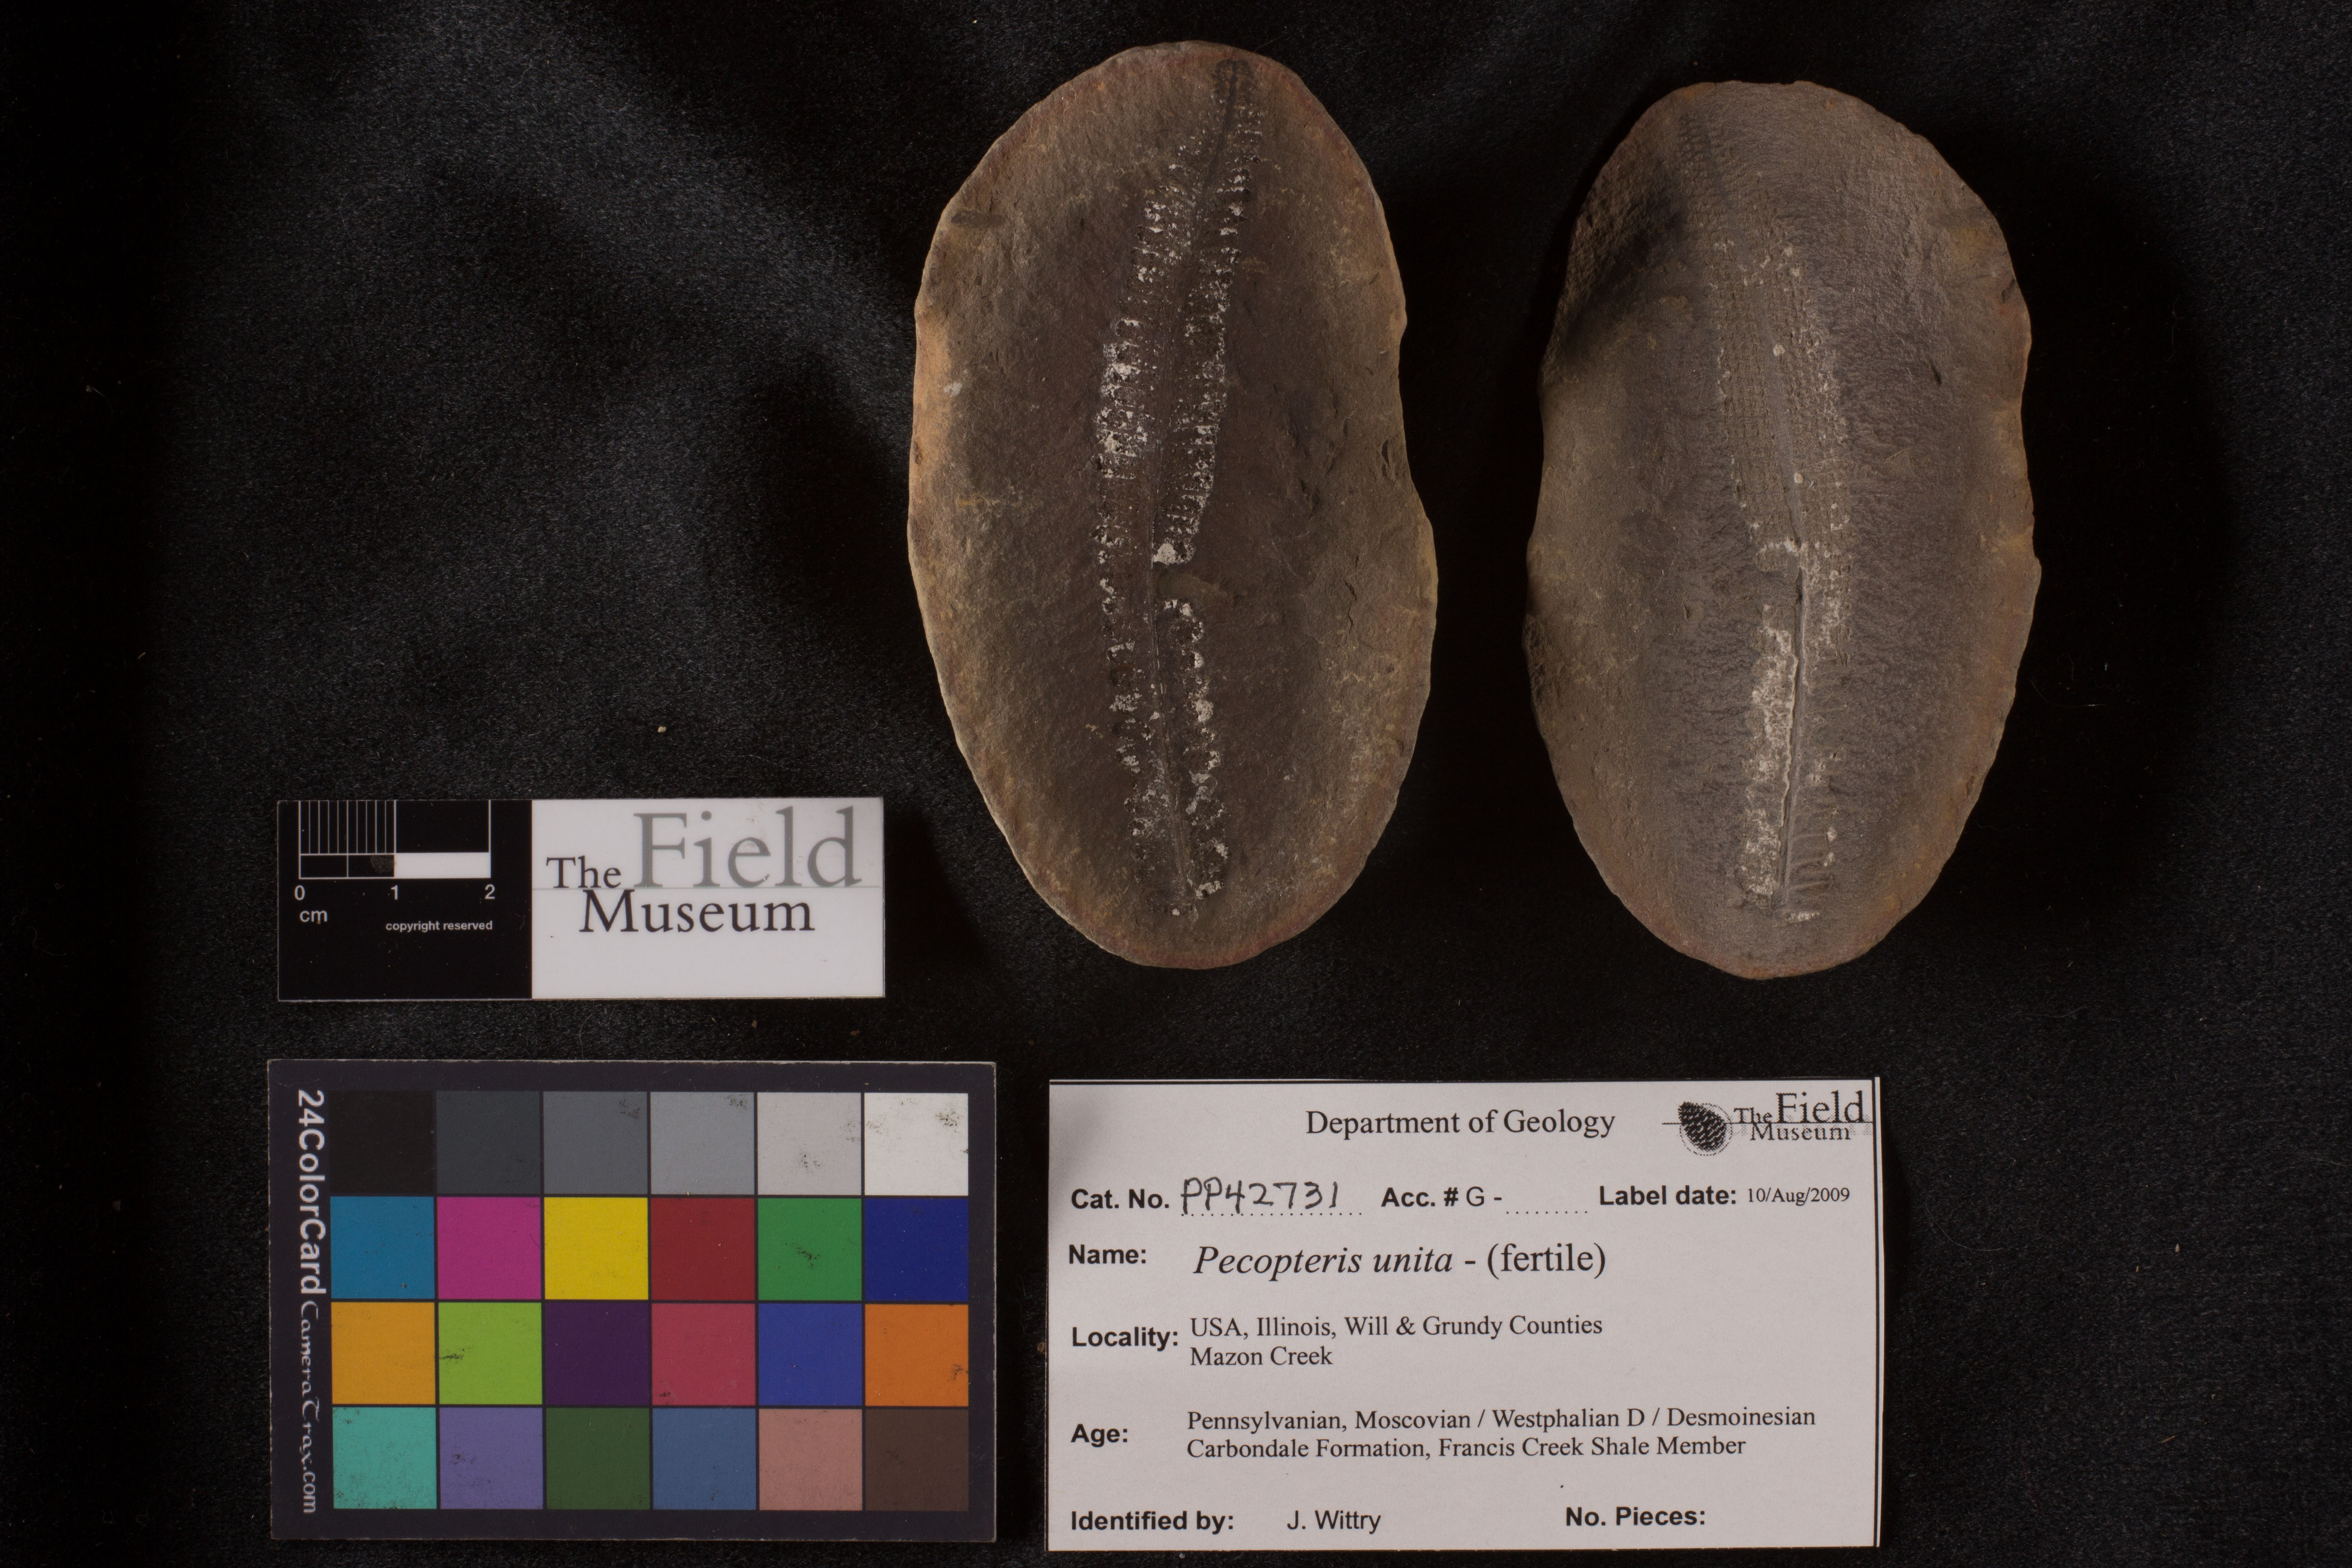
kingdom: Plantae
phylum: Tracheophyta
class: Polypodiopsida
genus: Diplazites
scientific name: Diplazites
